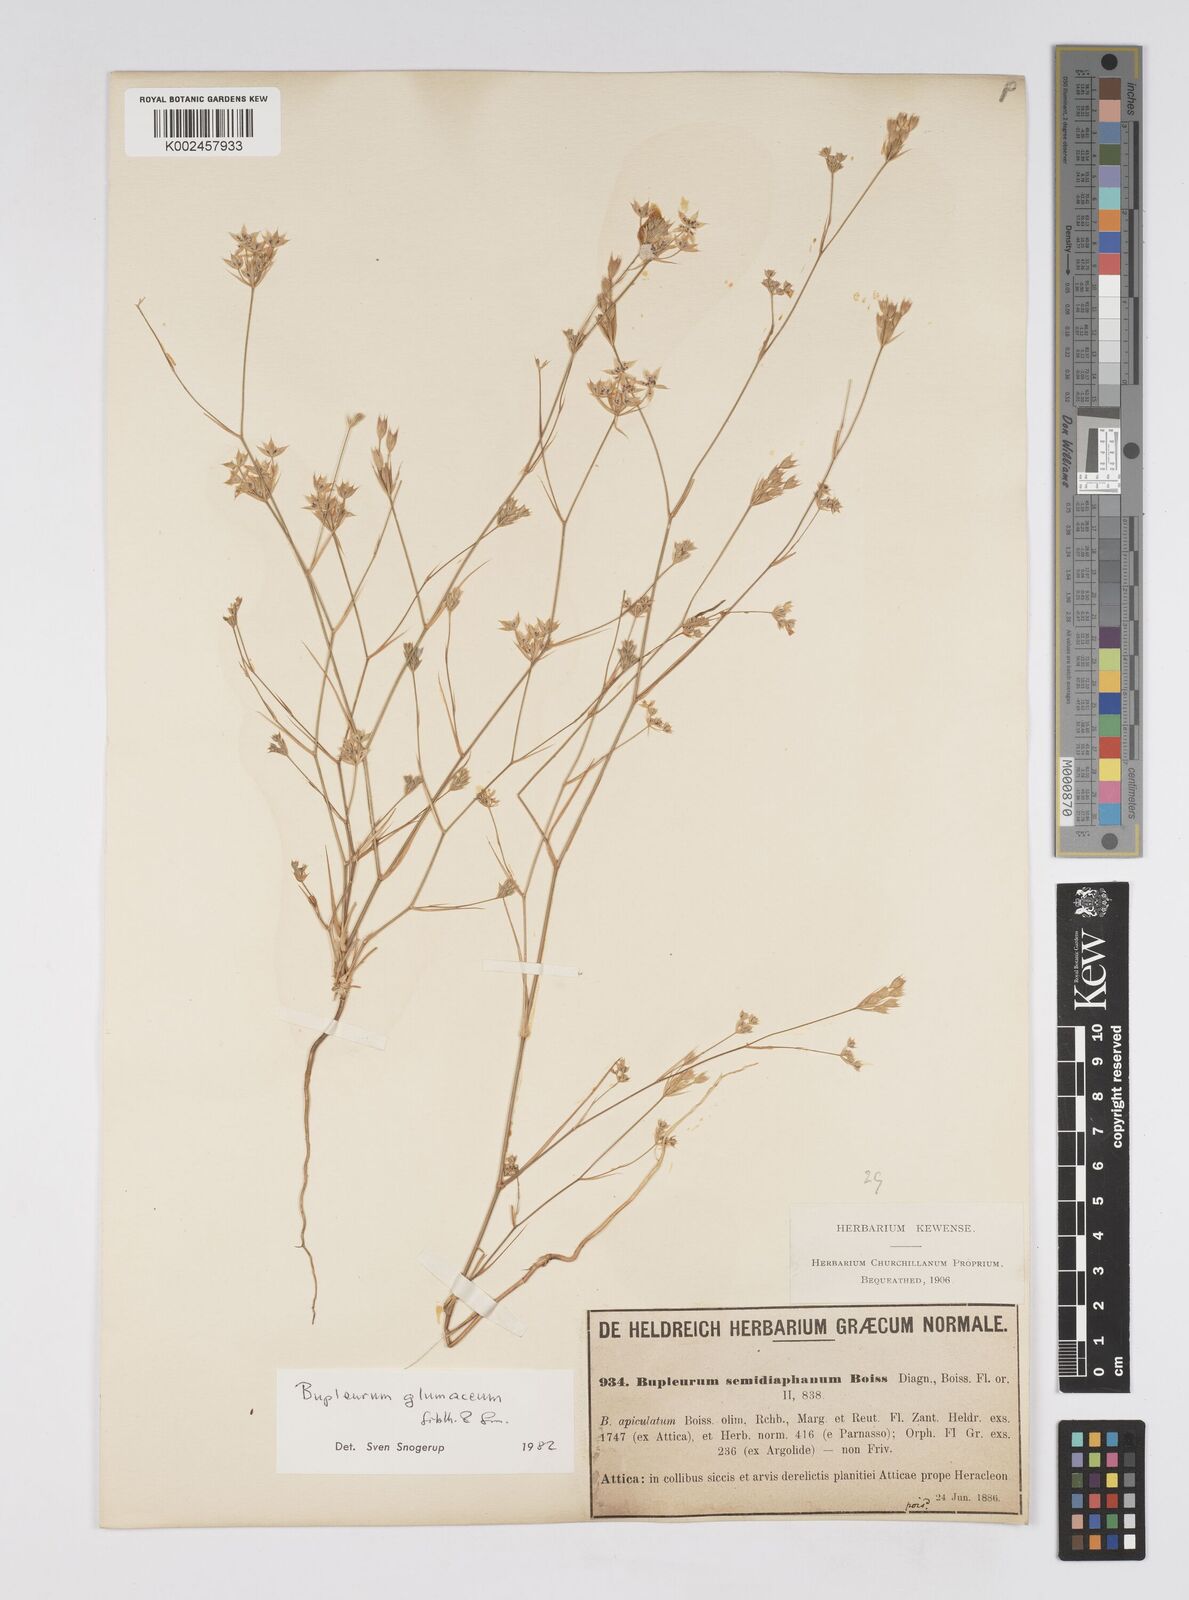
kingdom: Plantae
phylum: Tracheophyta
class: Magnoliopsida
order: Apiales
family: Apiaceae
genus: Bupleurum
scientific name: Bupleurum glumaceum
